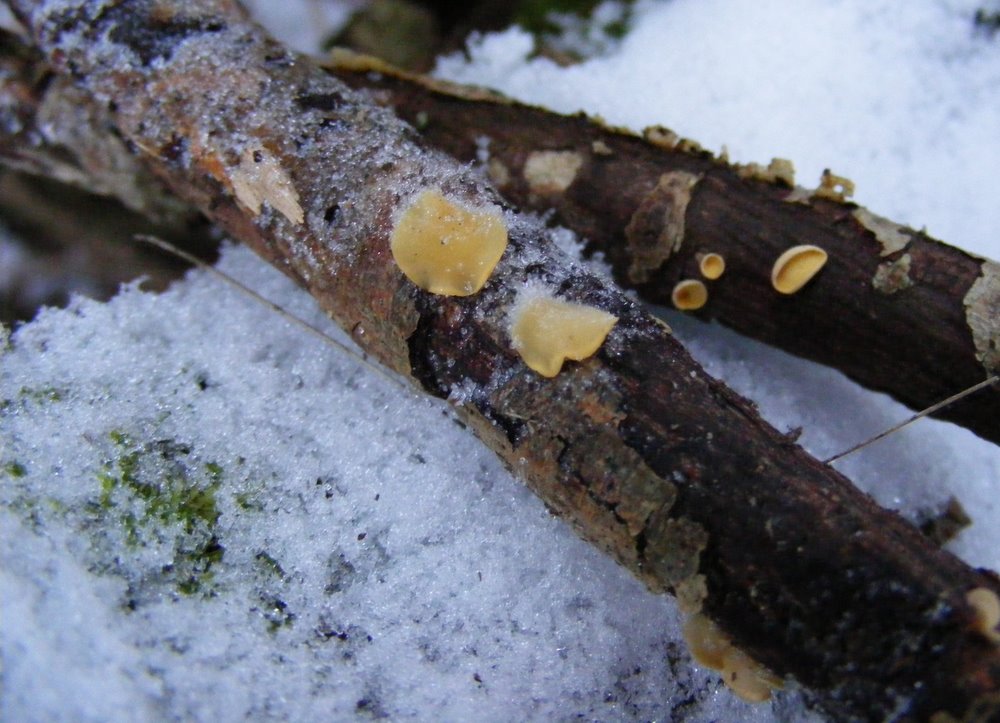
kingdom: Fungi
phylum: Ascomycota
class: Leotiomycetes
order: Helotiales
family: Helotiaceae
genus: Hymenoscyphus
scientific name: Hymenoscyphus calyculus
